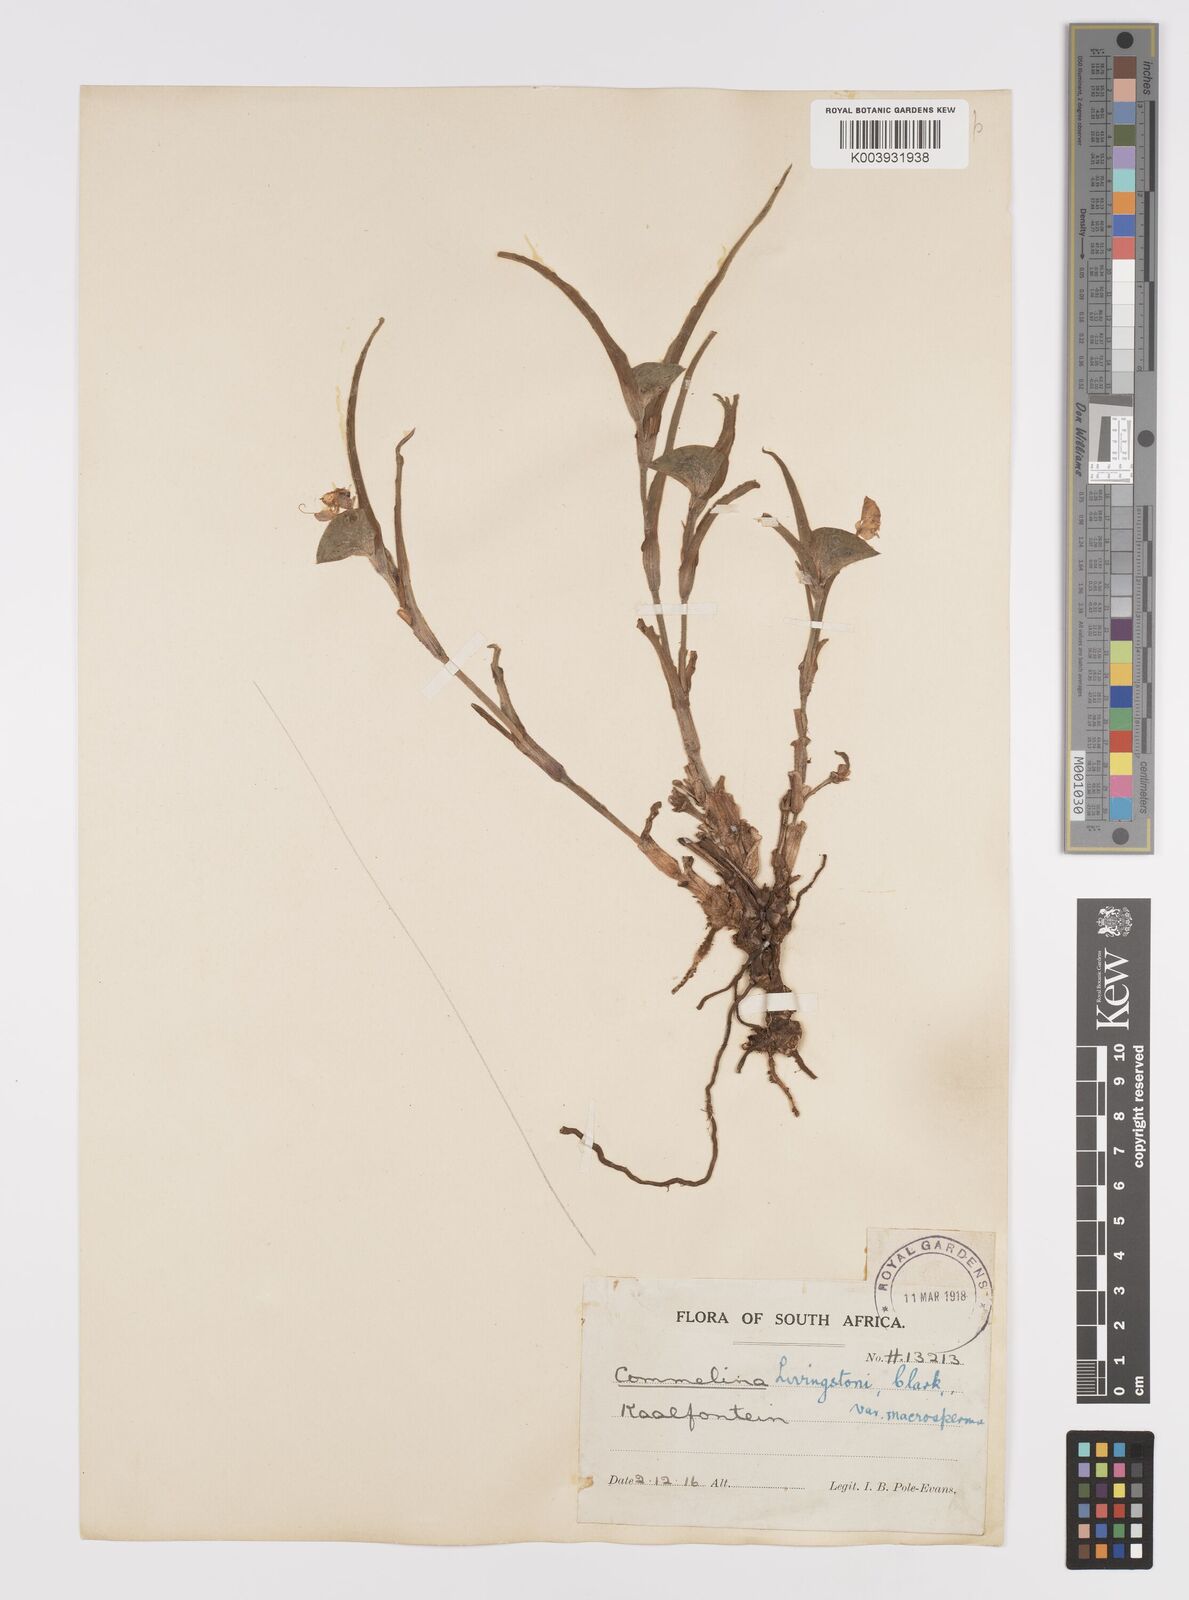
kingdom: Plantae
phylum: Tracheophyta
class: Liliopsida
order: Commelinales
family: Commelinaceae
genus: Commelina
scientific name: Commelina erecta
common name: Blousel blommetjie
